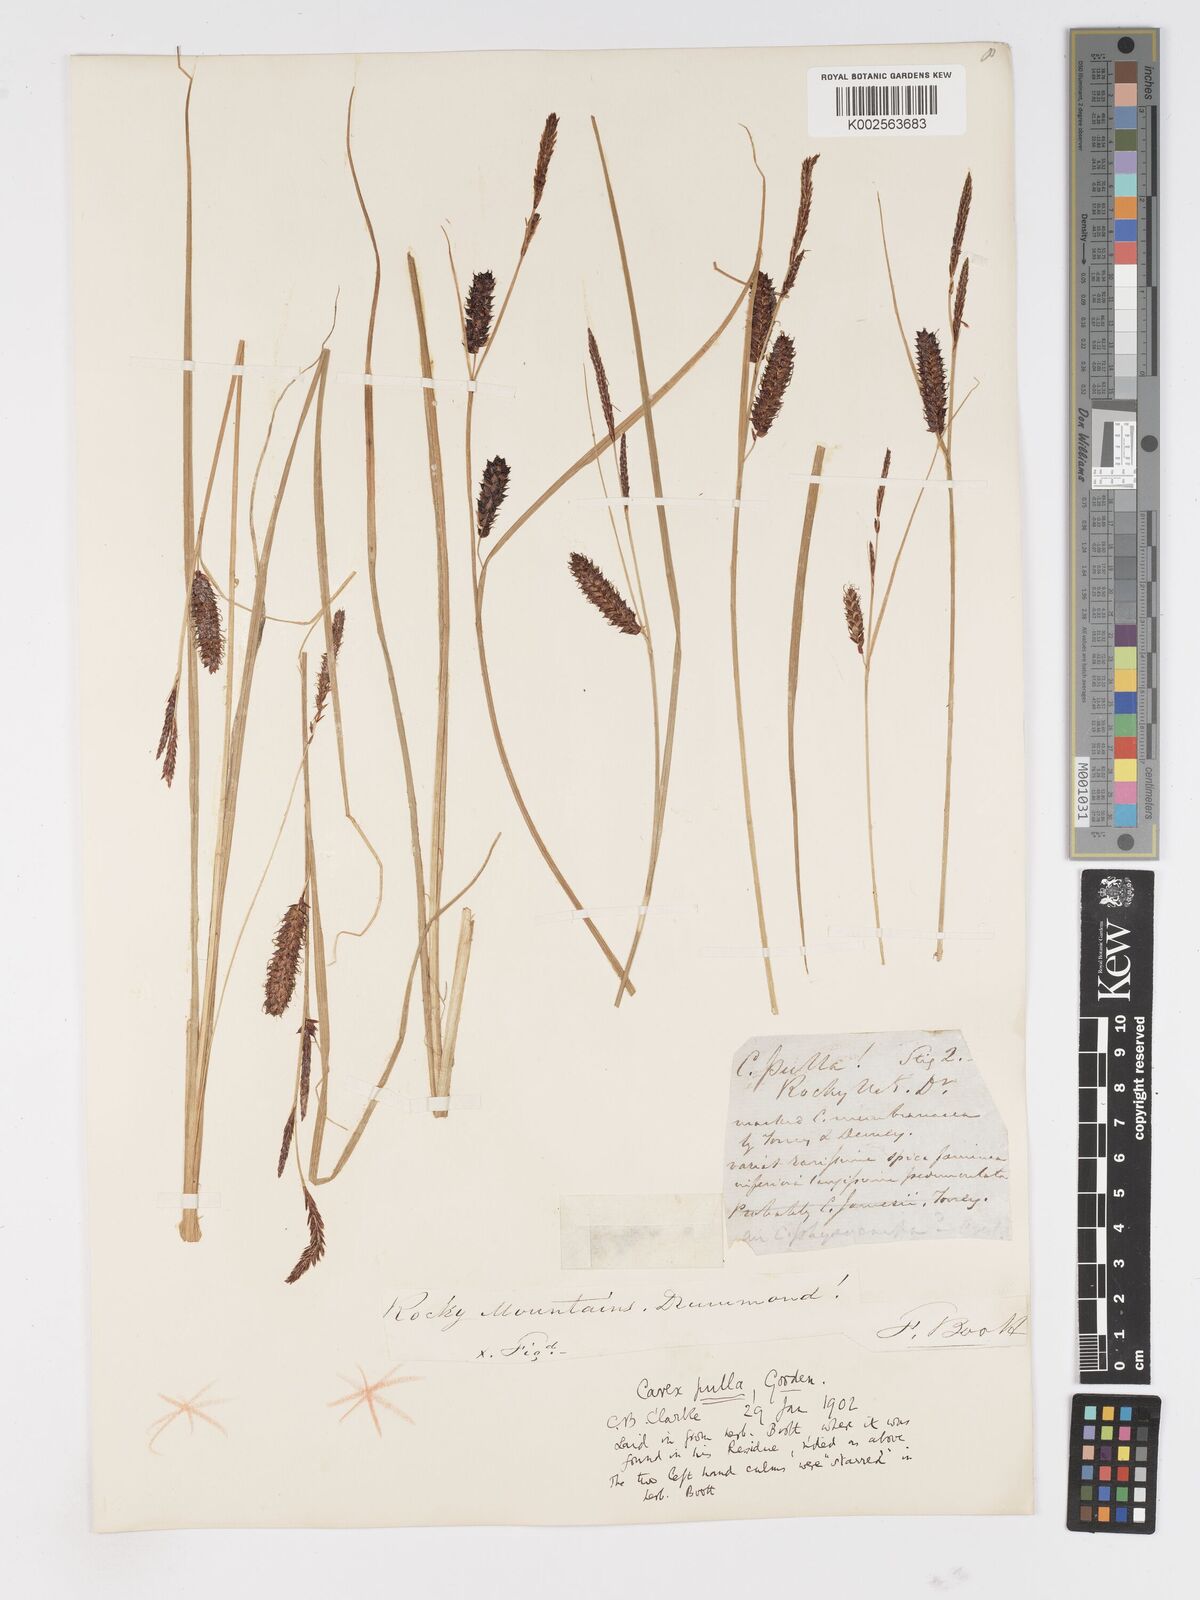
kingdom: Plantae
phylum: Tracheophyta
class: Liliopsida
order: Poales
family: Cyperaceae
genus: Carex
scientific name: Carex saxatilis
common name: Russet sedge
